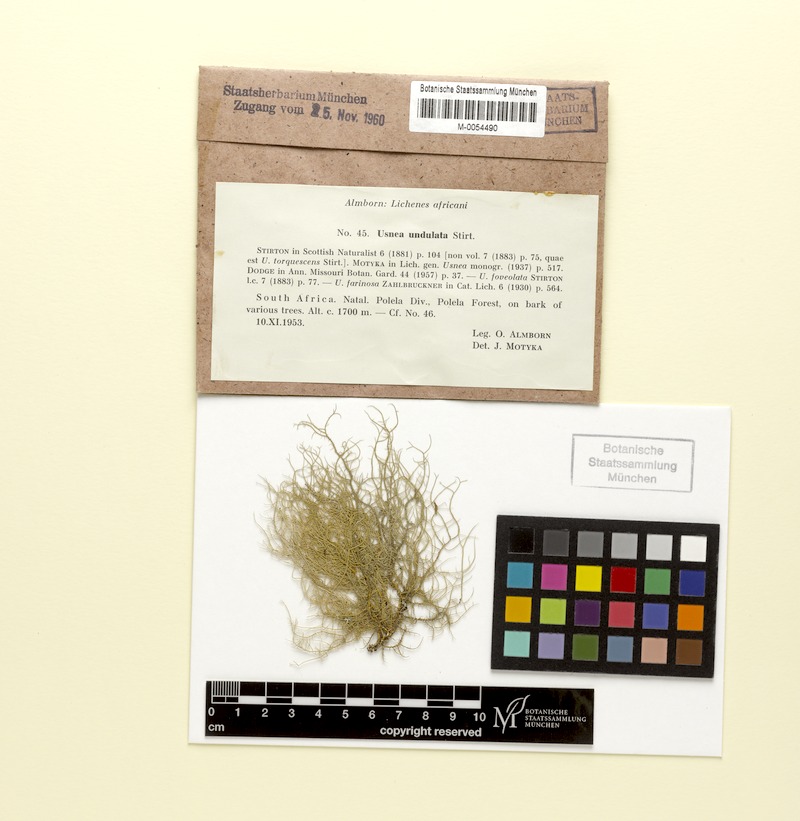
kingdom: Fungi
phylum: Ascomycota
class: Lecanoromycetes
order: Lecanorales
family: Parmeliaceae
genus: Usnea
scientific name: Usnea angulata
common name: Old-man’s beard lichen
